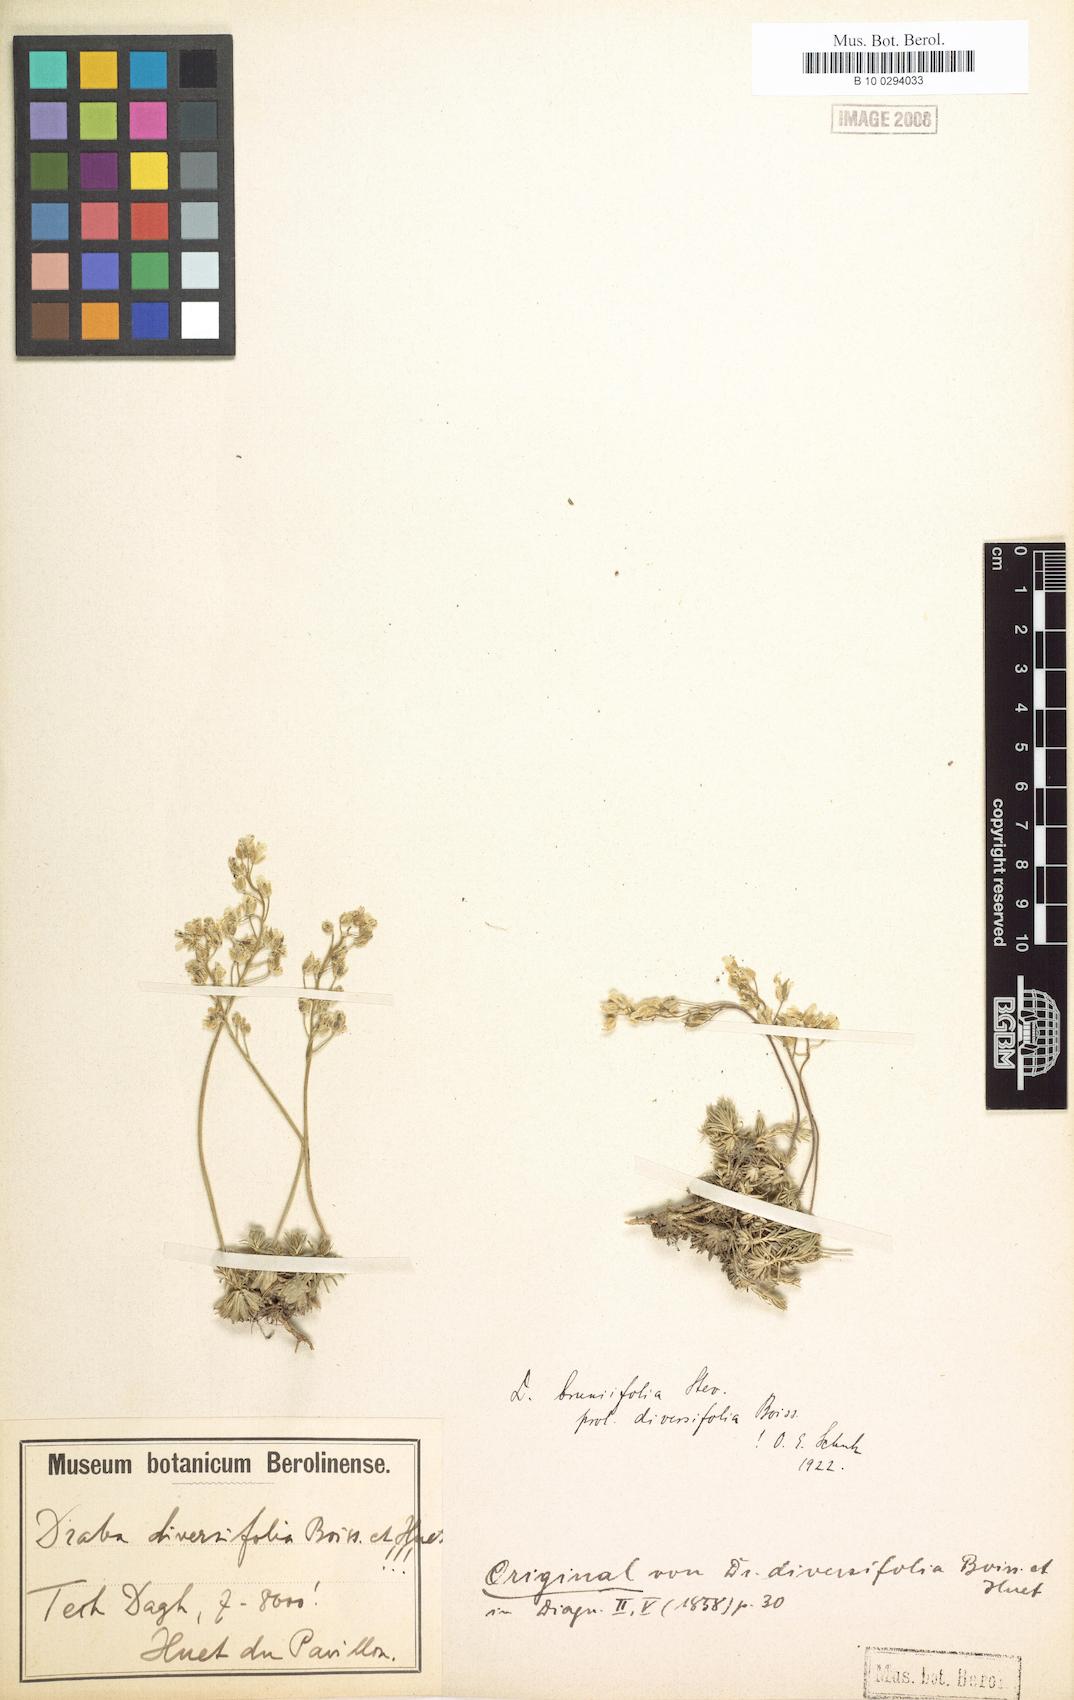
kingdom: Plantae
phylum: Tracheophyta
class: Magnoliopsida
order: Brassicales
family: Brassicaceae
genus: Draba
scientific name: Draba bruniifolia
